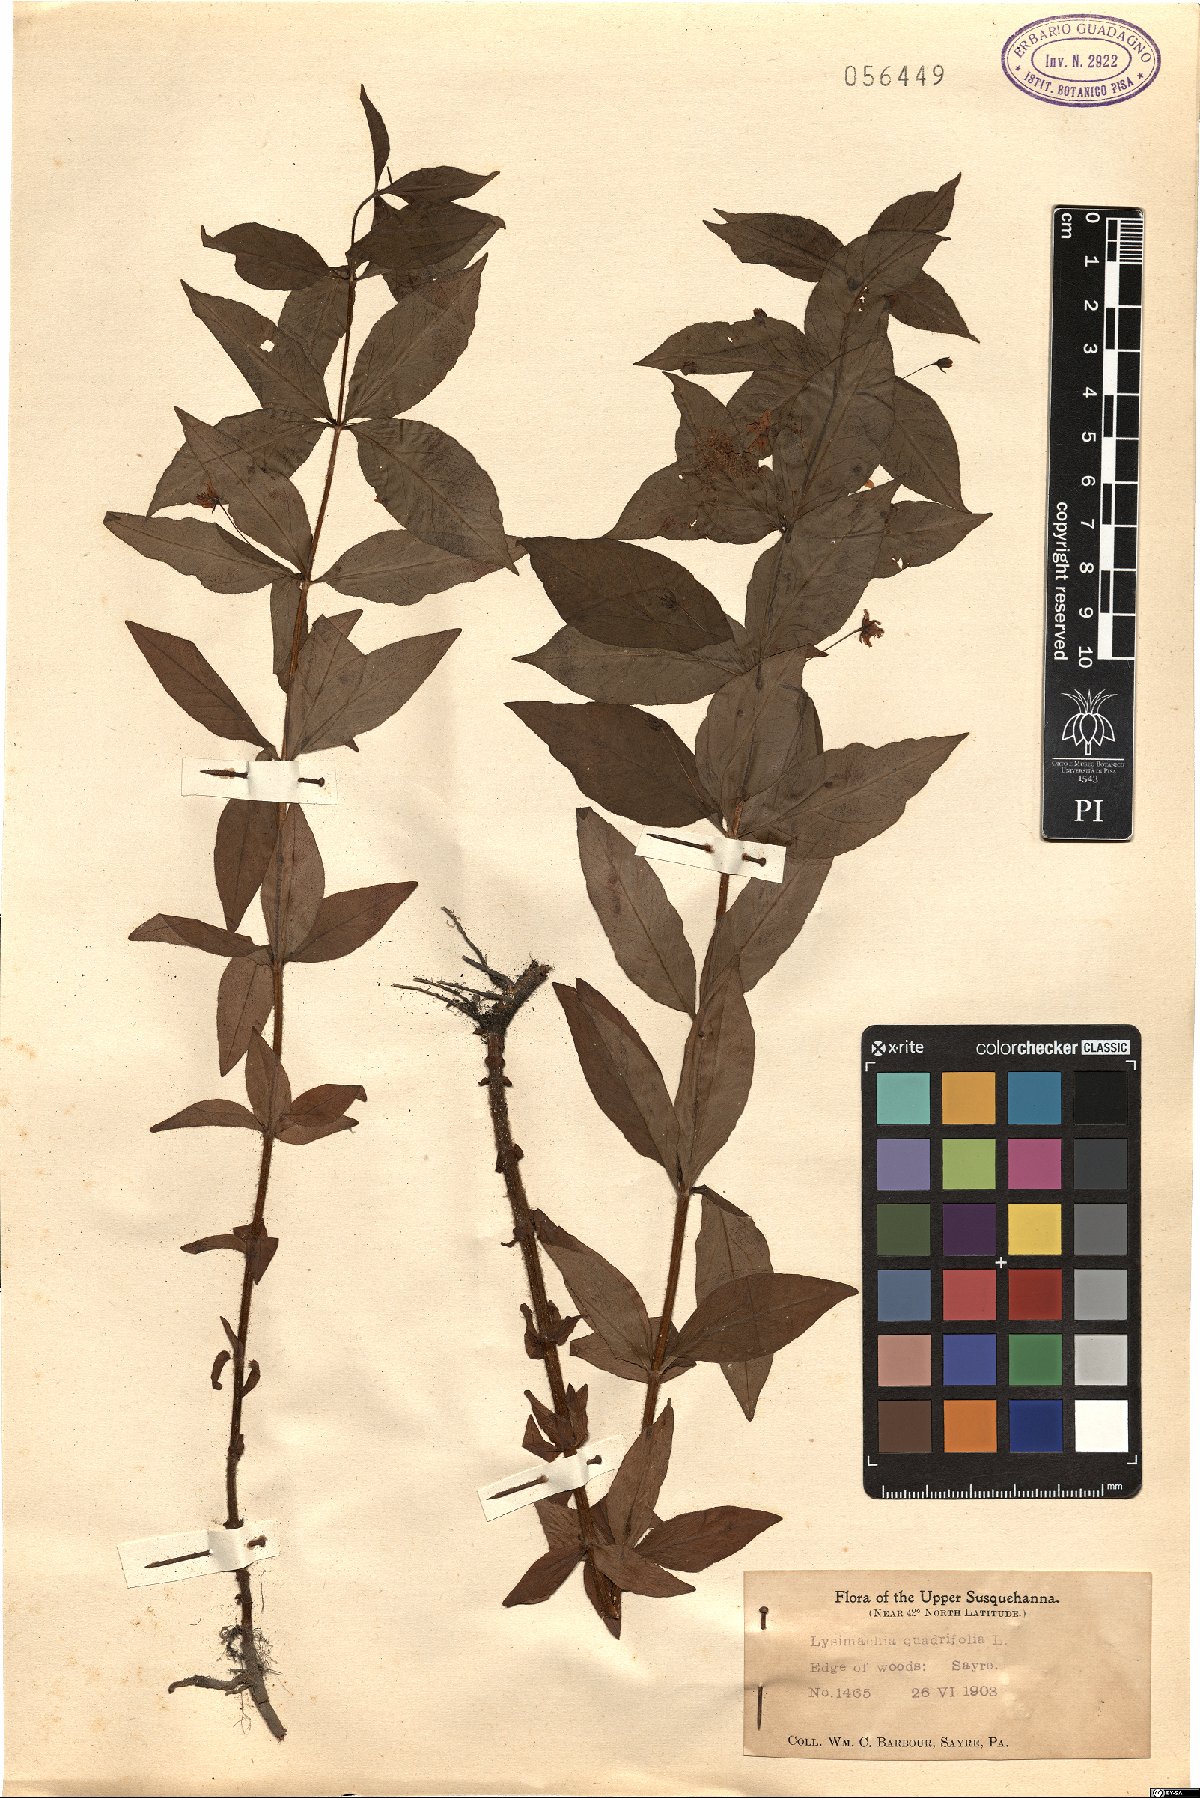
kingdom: Plantae
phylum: Tracheophyta
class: Magnoliopsida
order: Ericales
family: Primulaceae
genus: Lysimachia
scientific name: Lysimachia quadrifolia
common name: Whorled loosestrife
